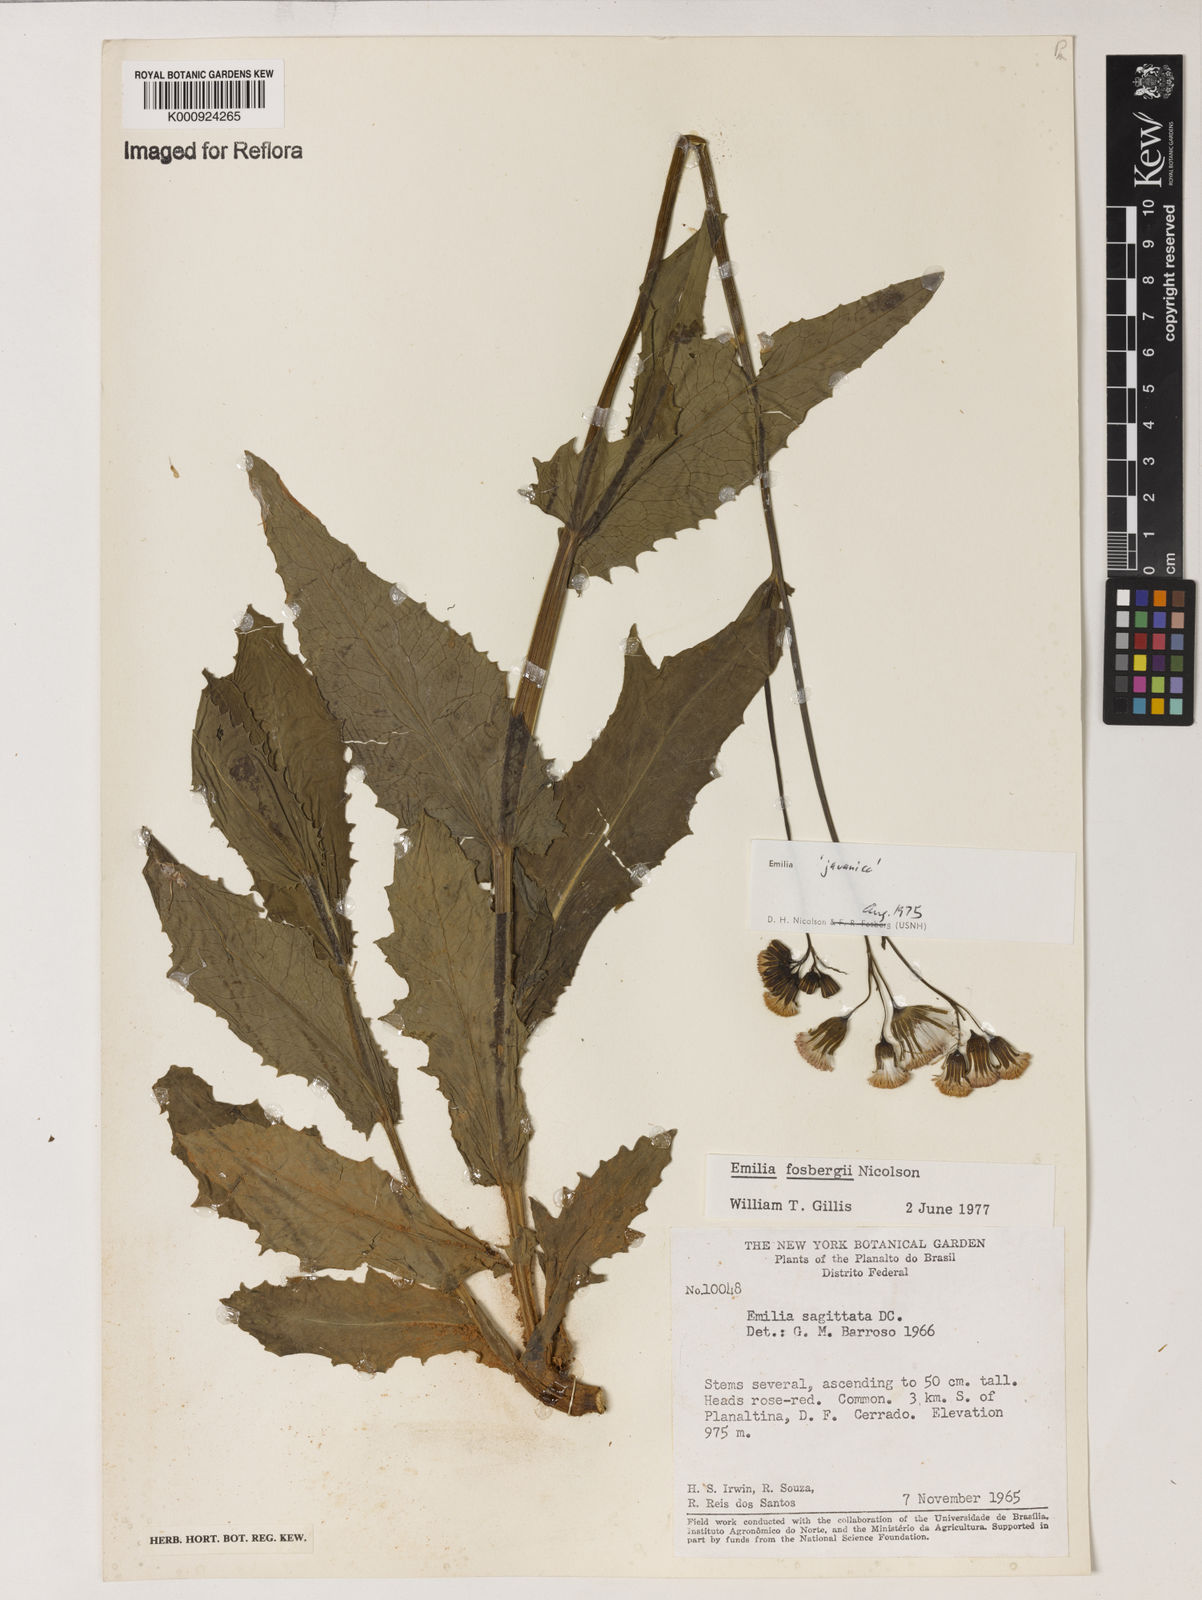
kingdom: Plantae
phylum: Tracheophyta
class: Magnoliopsida
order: Asterales
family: Asteraceae
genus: Emilia
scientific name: Emilia fosbergii
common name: Florida tasselflower
